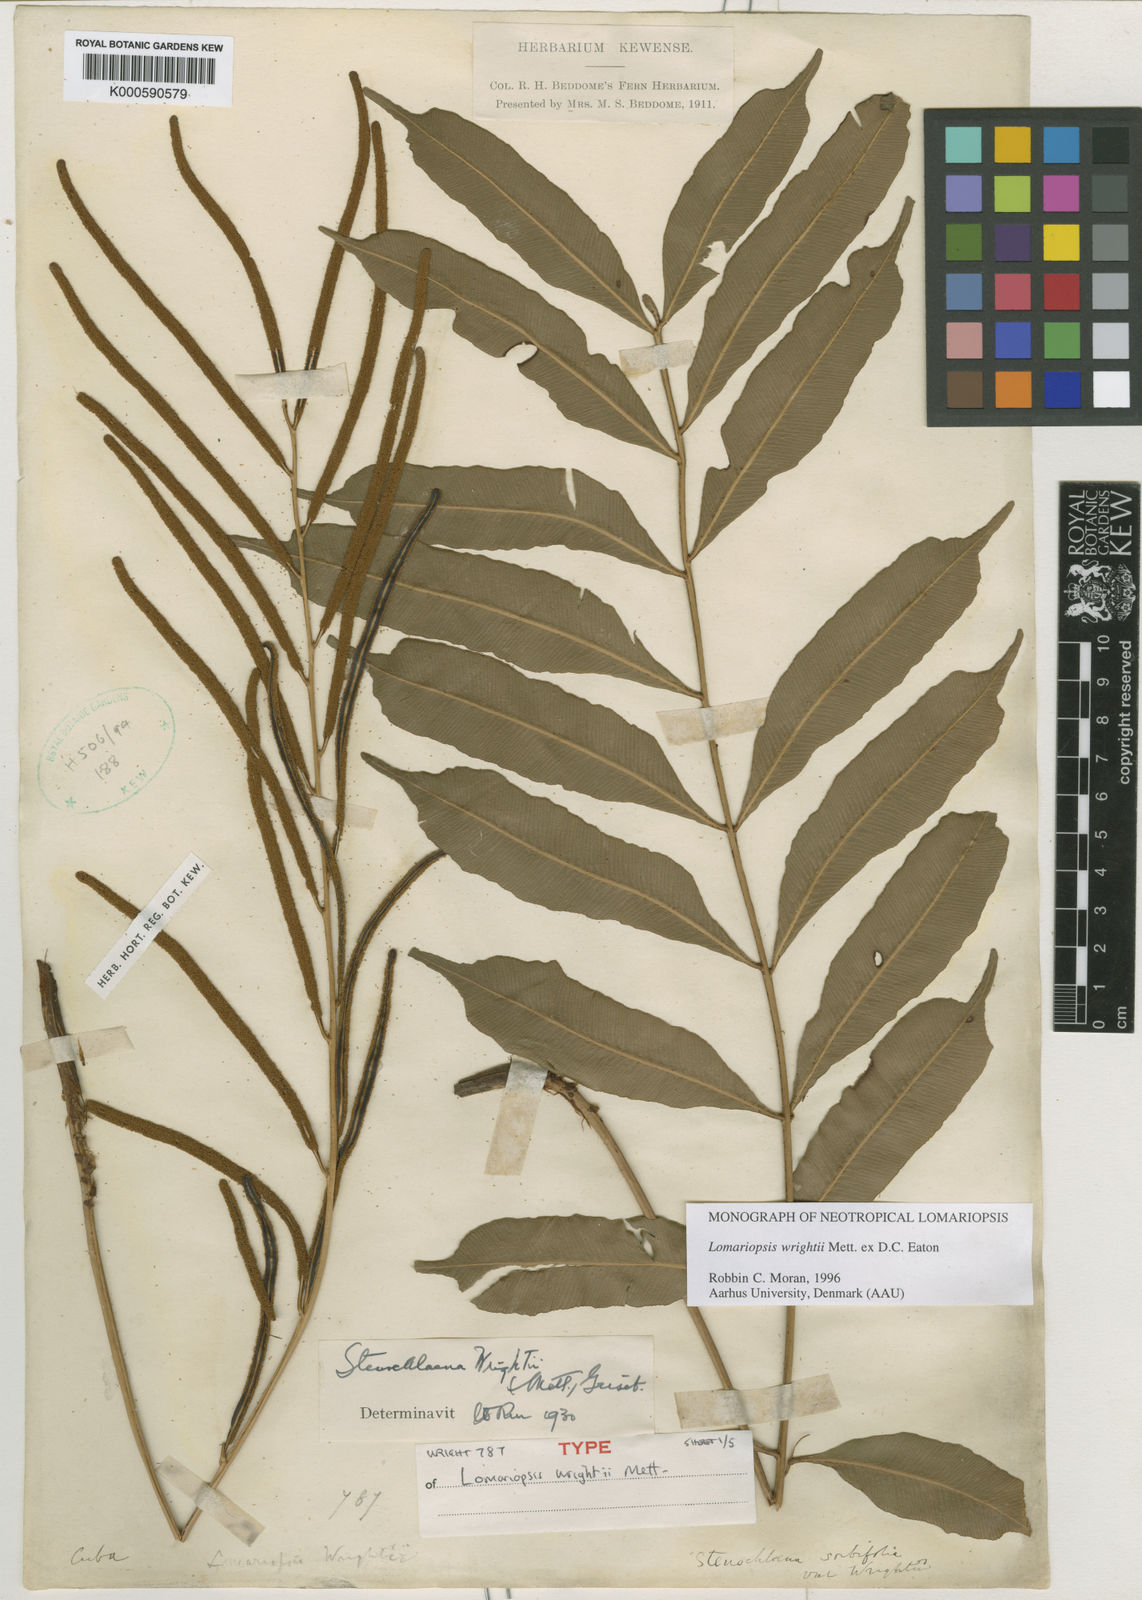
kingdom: Plantae
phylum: Tracheophyta
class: Polypodiopsida
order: Polypodiales
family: Lomariopsidaceae
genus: Lomariopsis
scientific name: Lomariopsis
